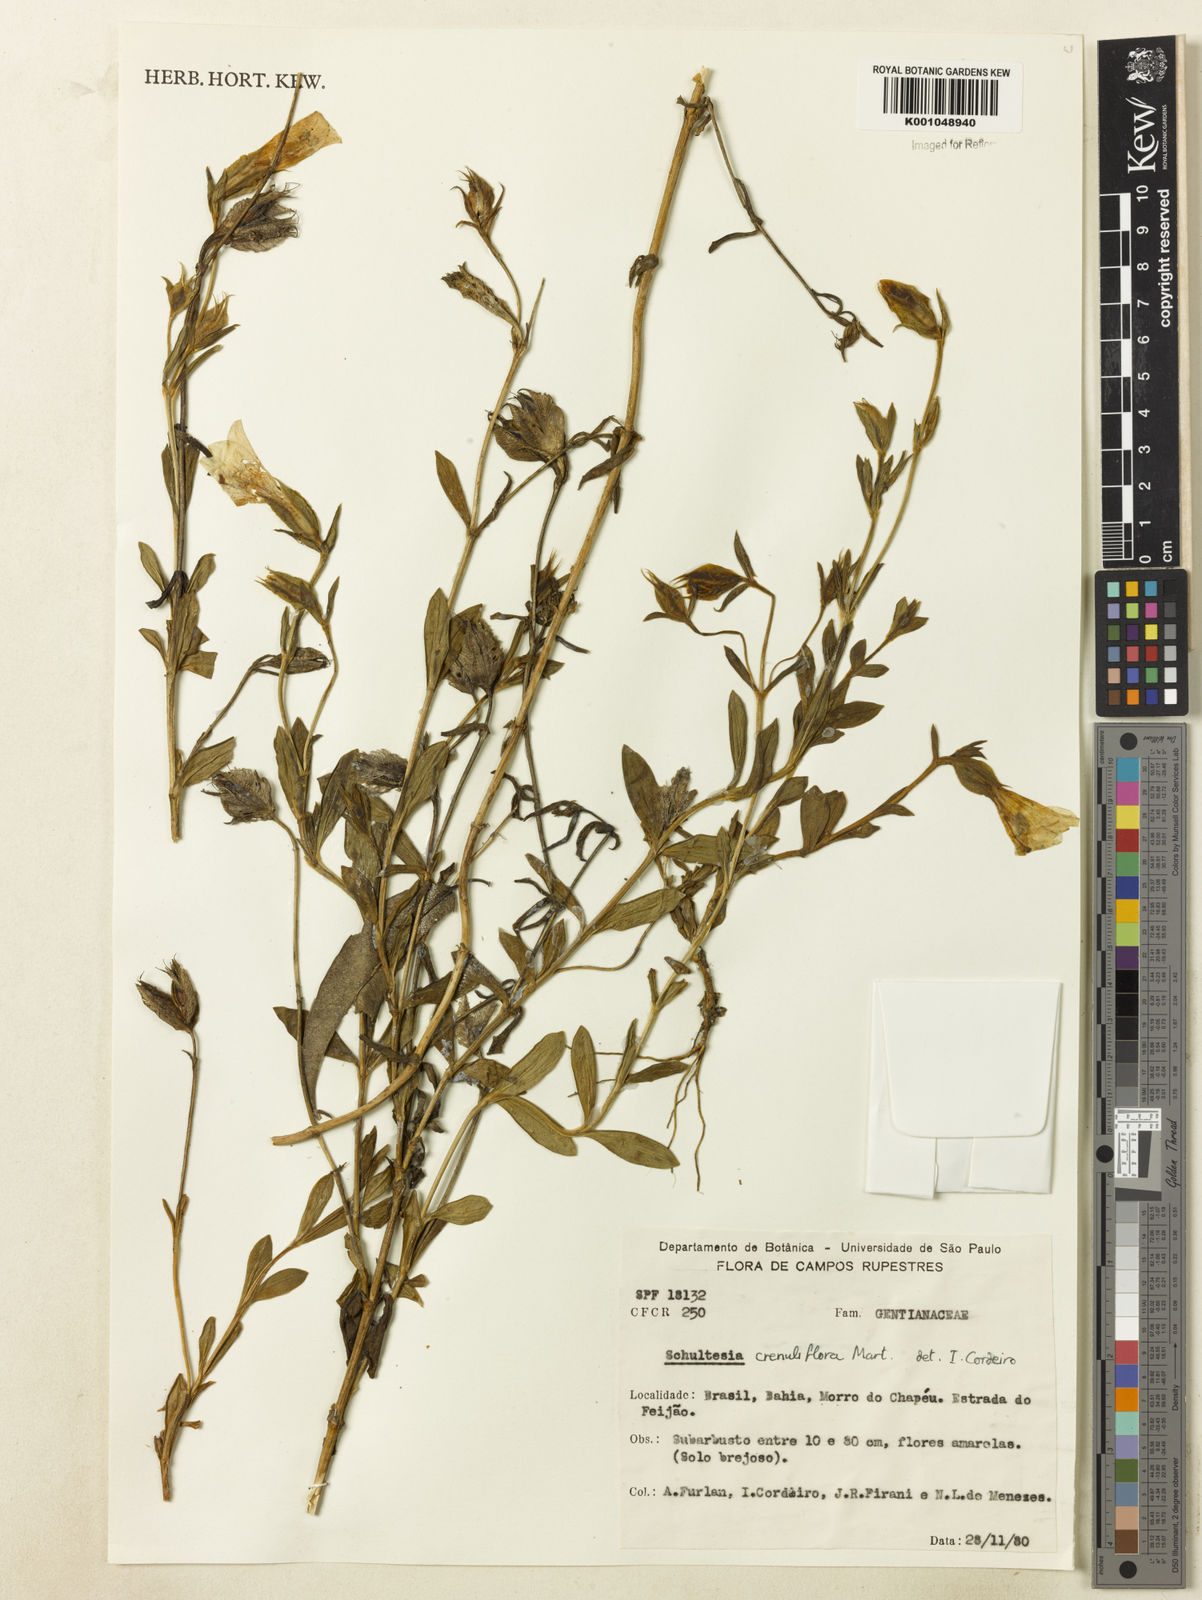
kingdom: Plantae
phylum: Tracheophyta
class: Magnoliopsida
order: Gentianales
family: Gentianaceae
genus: Schultesia
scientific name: Schultesia crenuliflora
